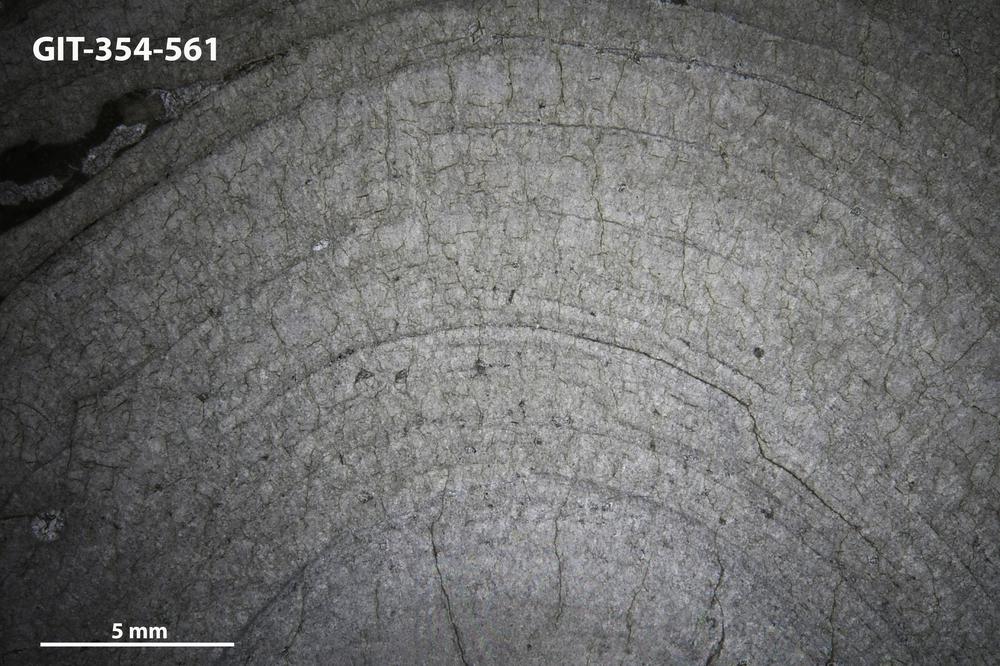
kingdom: Animalia
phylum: Porifera
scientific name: Porifera
